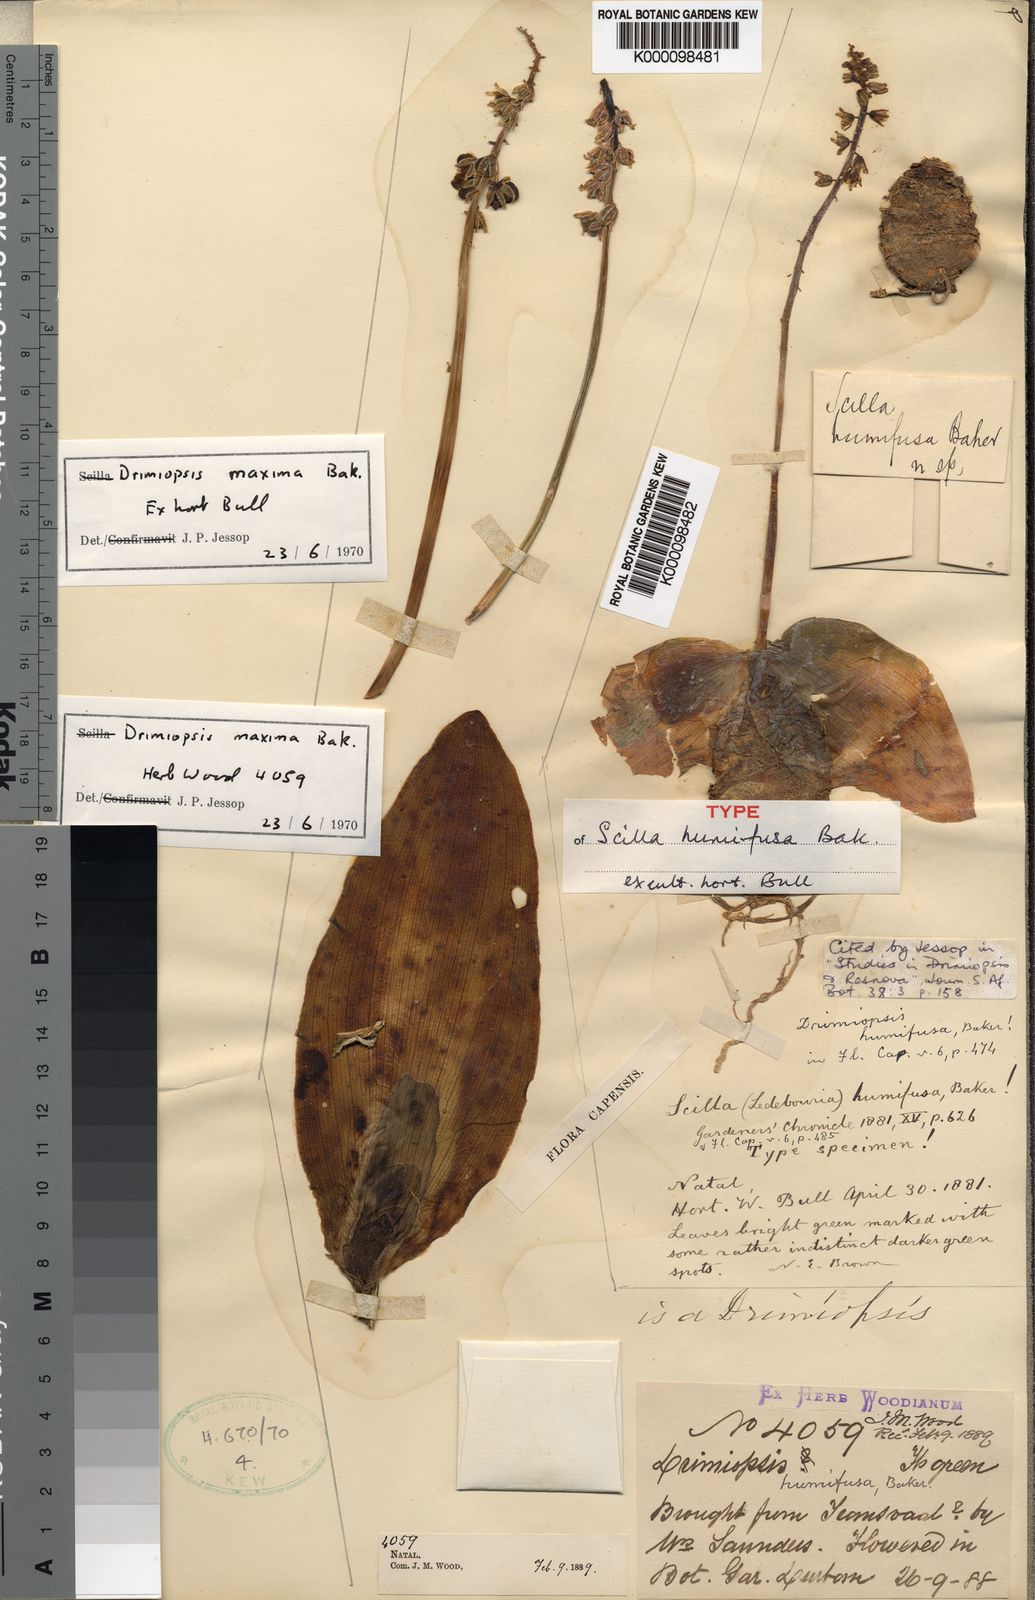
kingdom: Plantae
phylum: Tracheophyta
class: Liliopsida
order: Asparagales
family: Asparagaceae
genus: Resnova
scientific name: Resnova humifusa
